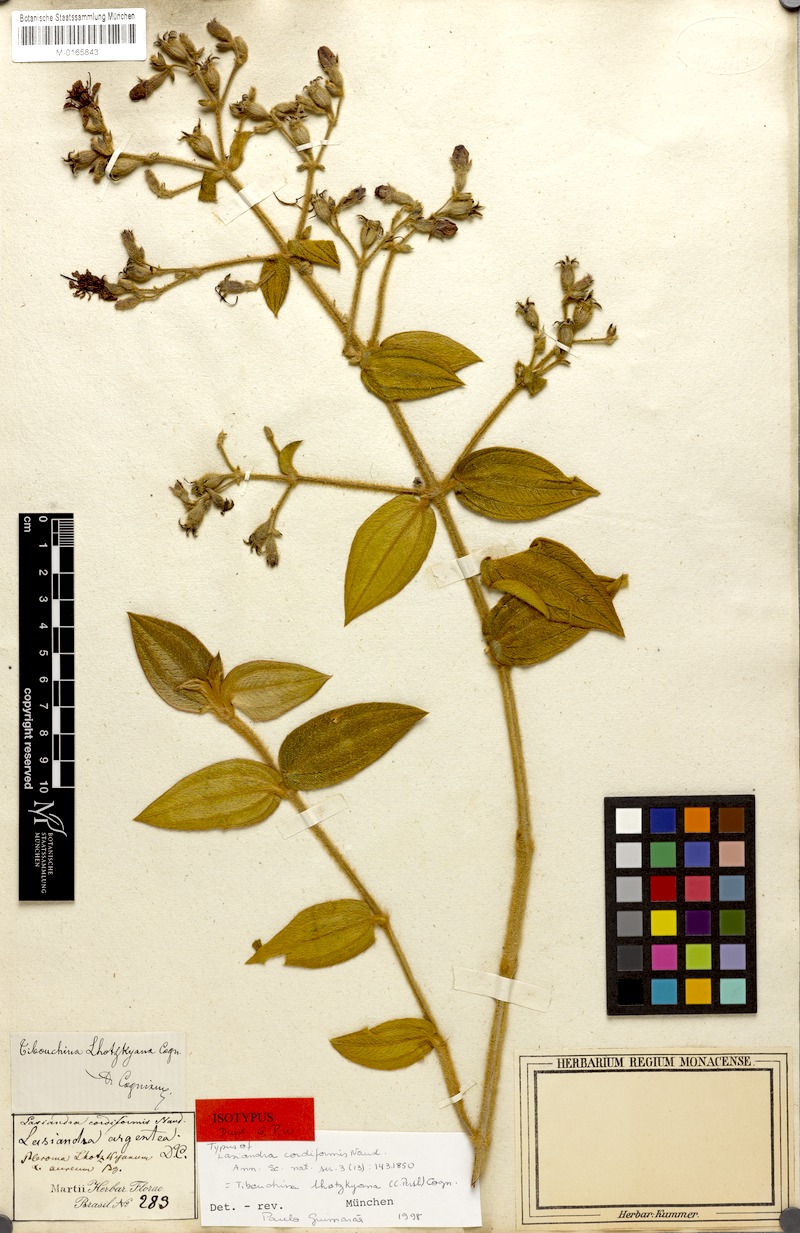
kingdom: Plantae
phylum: Tracheophyta
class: Magnoliopsida
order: Myrtales
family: Melastomataceae
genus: Chaetogastra
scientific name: Chaetogastra lhotskyana
